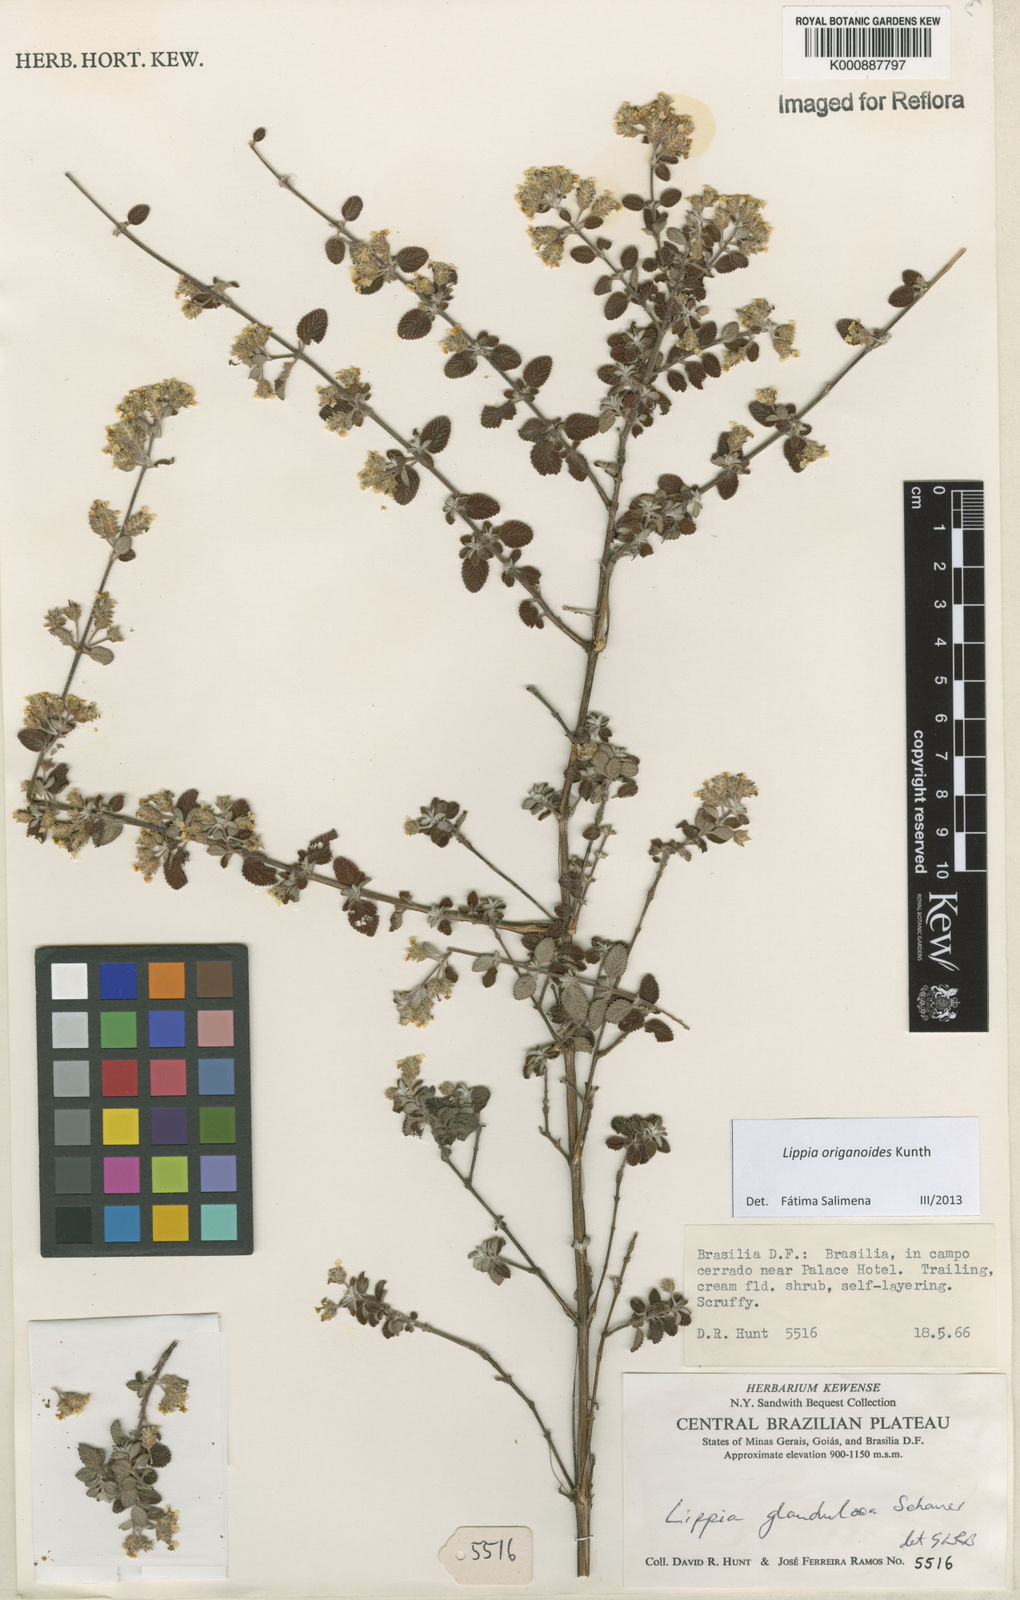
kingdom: Plantae
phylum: Tracheophyta
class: Magnoliopsida
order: Lamiales
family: Verbenaceae
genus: Lippia
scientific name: Lippia origanoides
